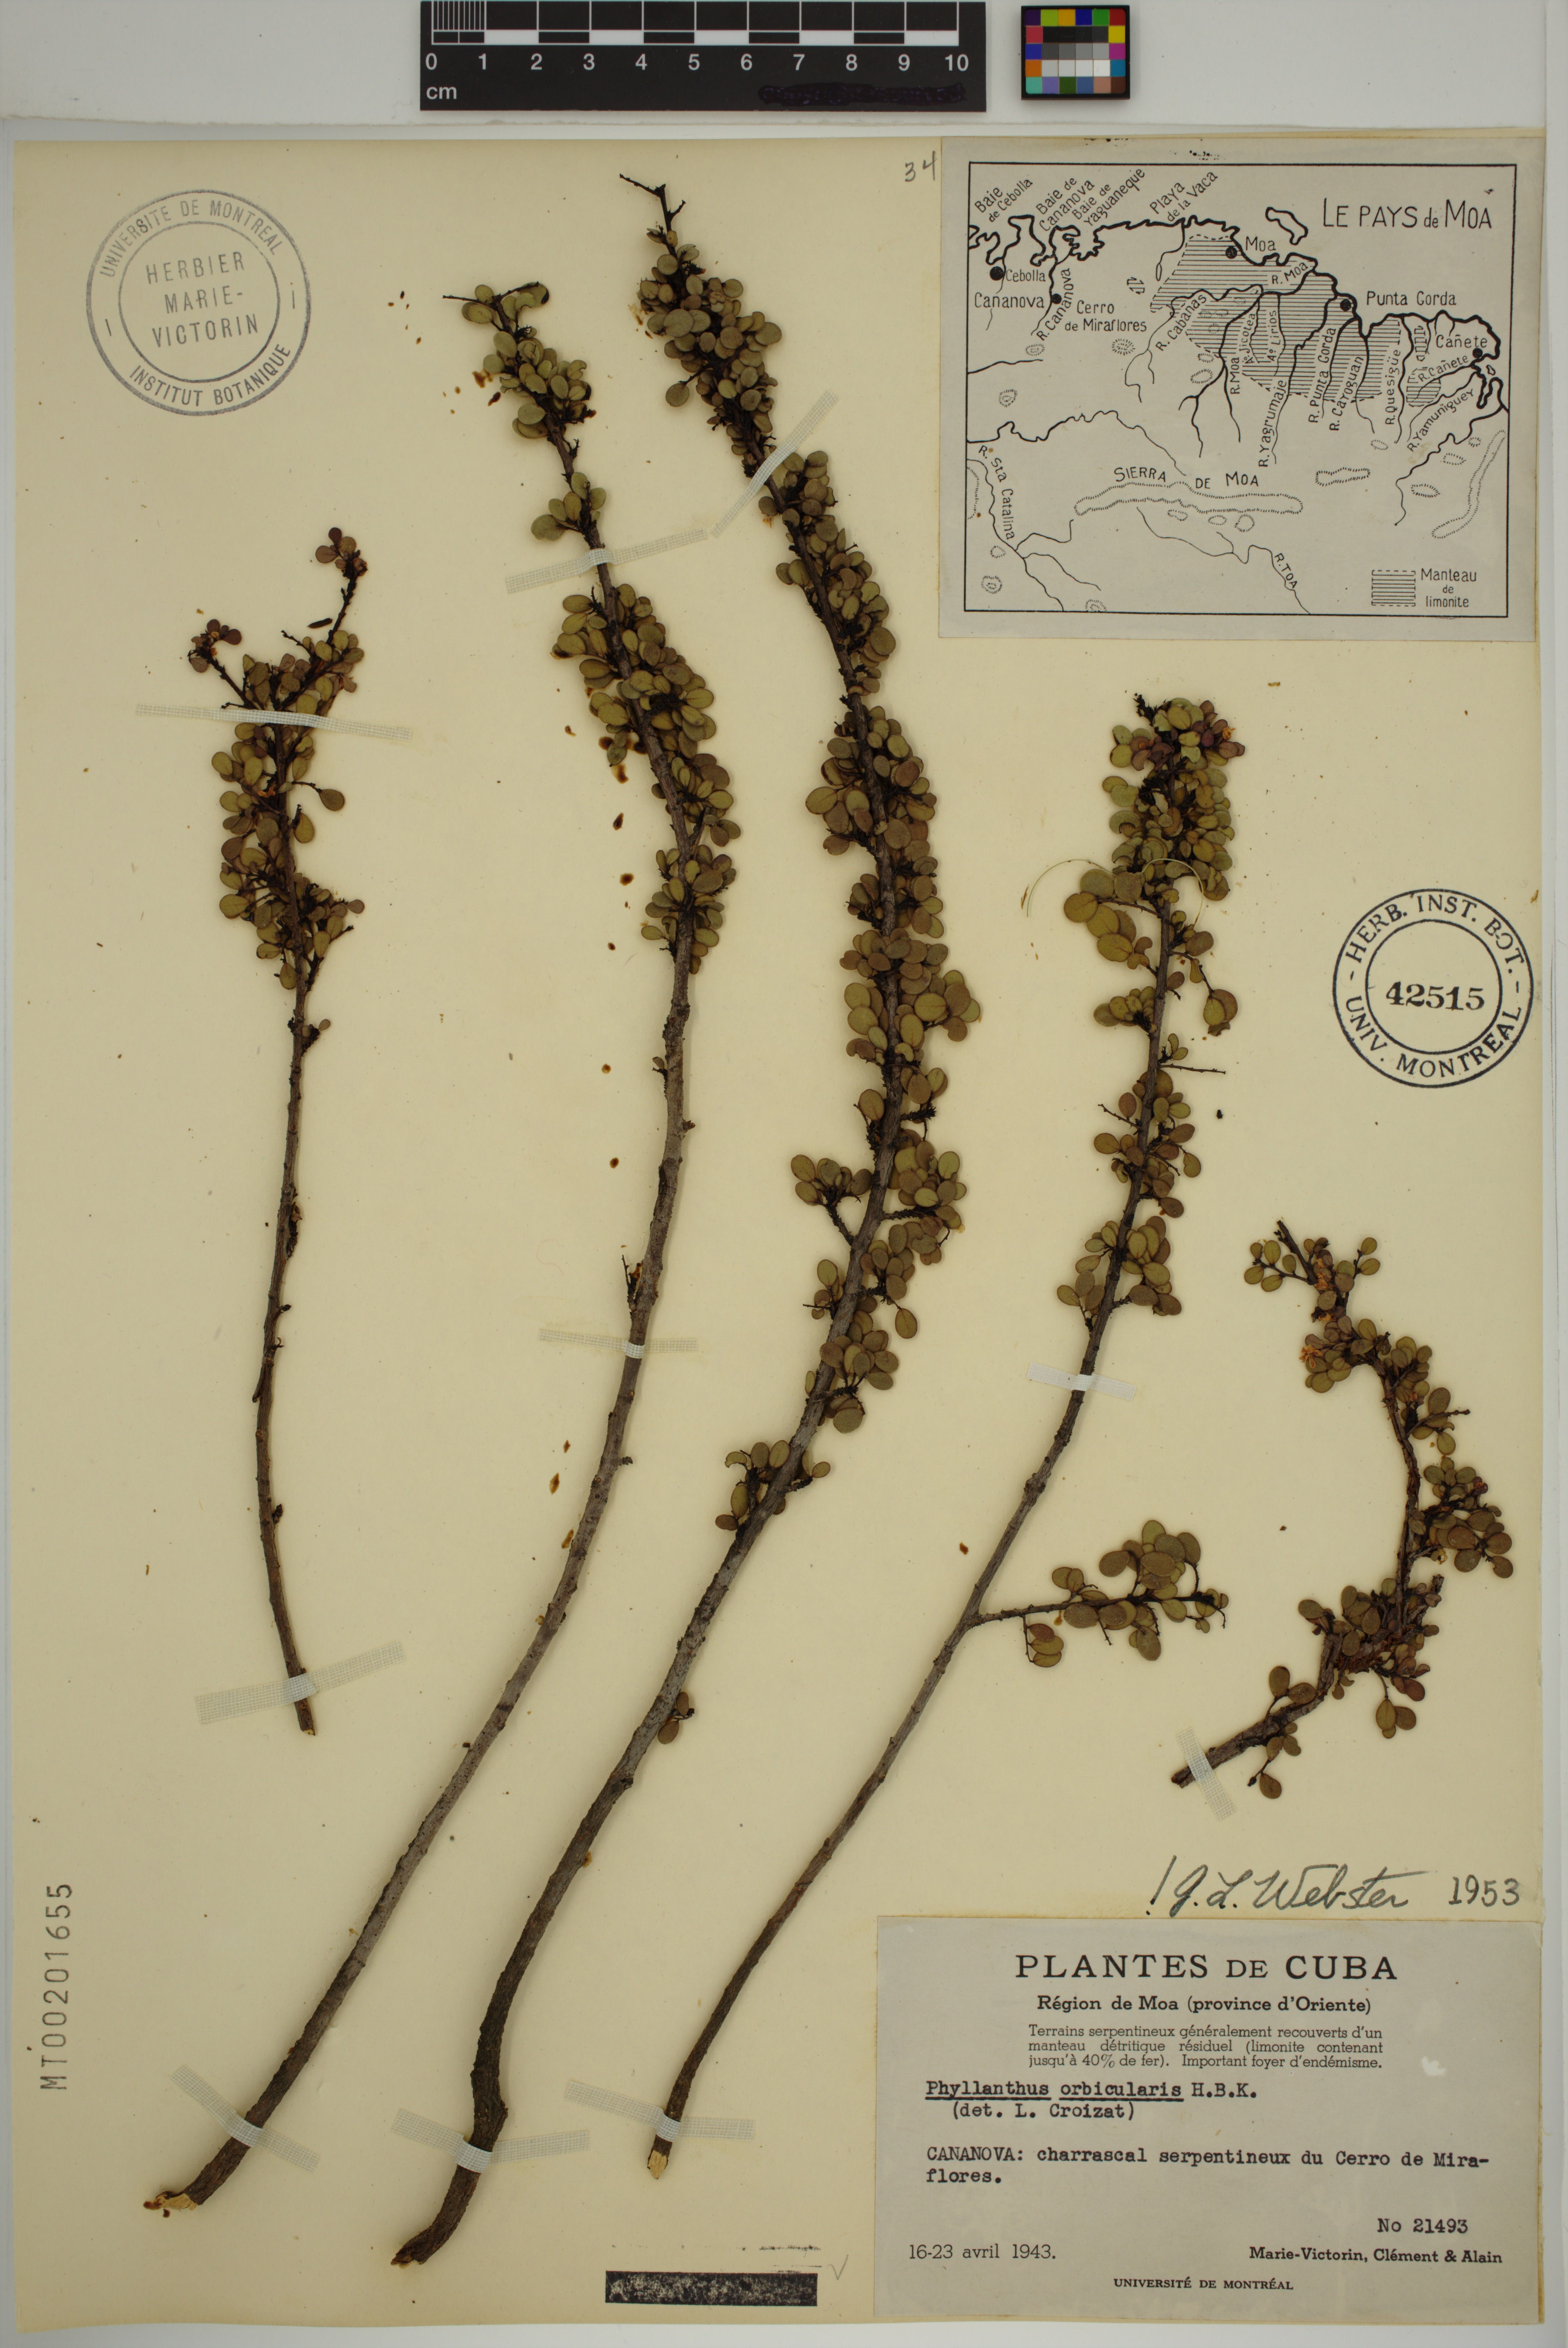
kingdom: Plantae
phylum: Tracheophyta
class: Magnoliopsida
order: Malpighiales
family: Phyllanthaceae
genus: Phyllanthus
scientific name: Phyllanthus orbicularis
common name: Wedge leaf-flower
